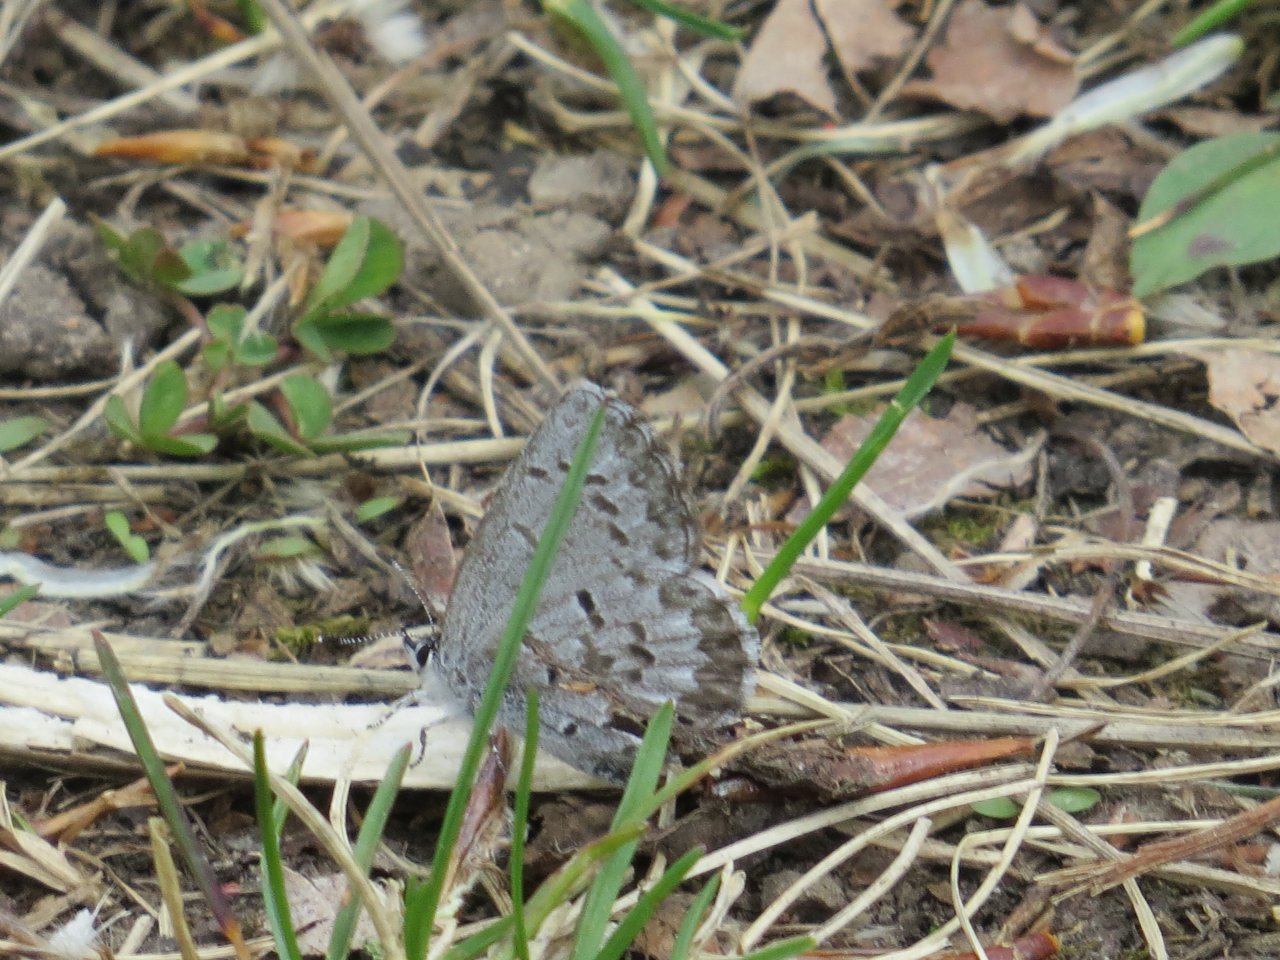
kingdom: Animalia
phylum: Arthropoda
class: Insecta
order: Lepidoptera
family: Lycaenidae
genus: Celastrina
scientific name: Celastrina lucia
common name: Northern Spring Azure
